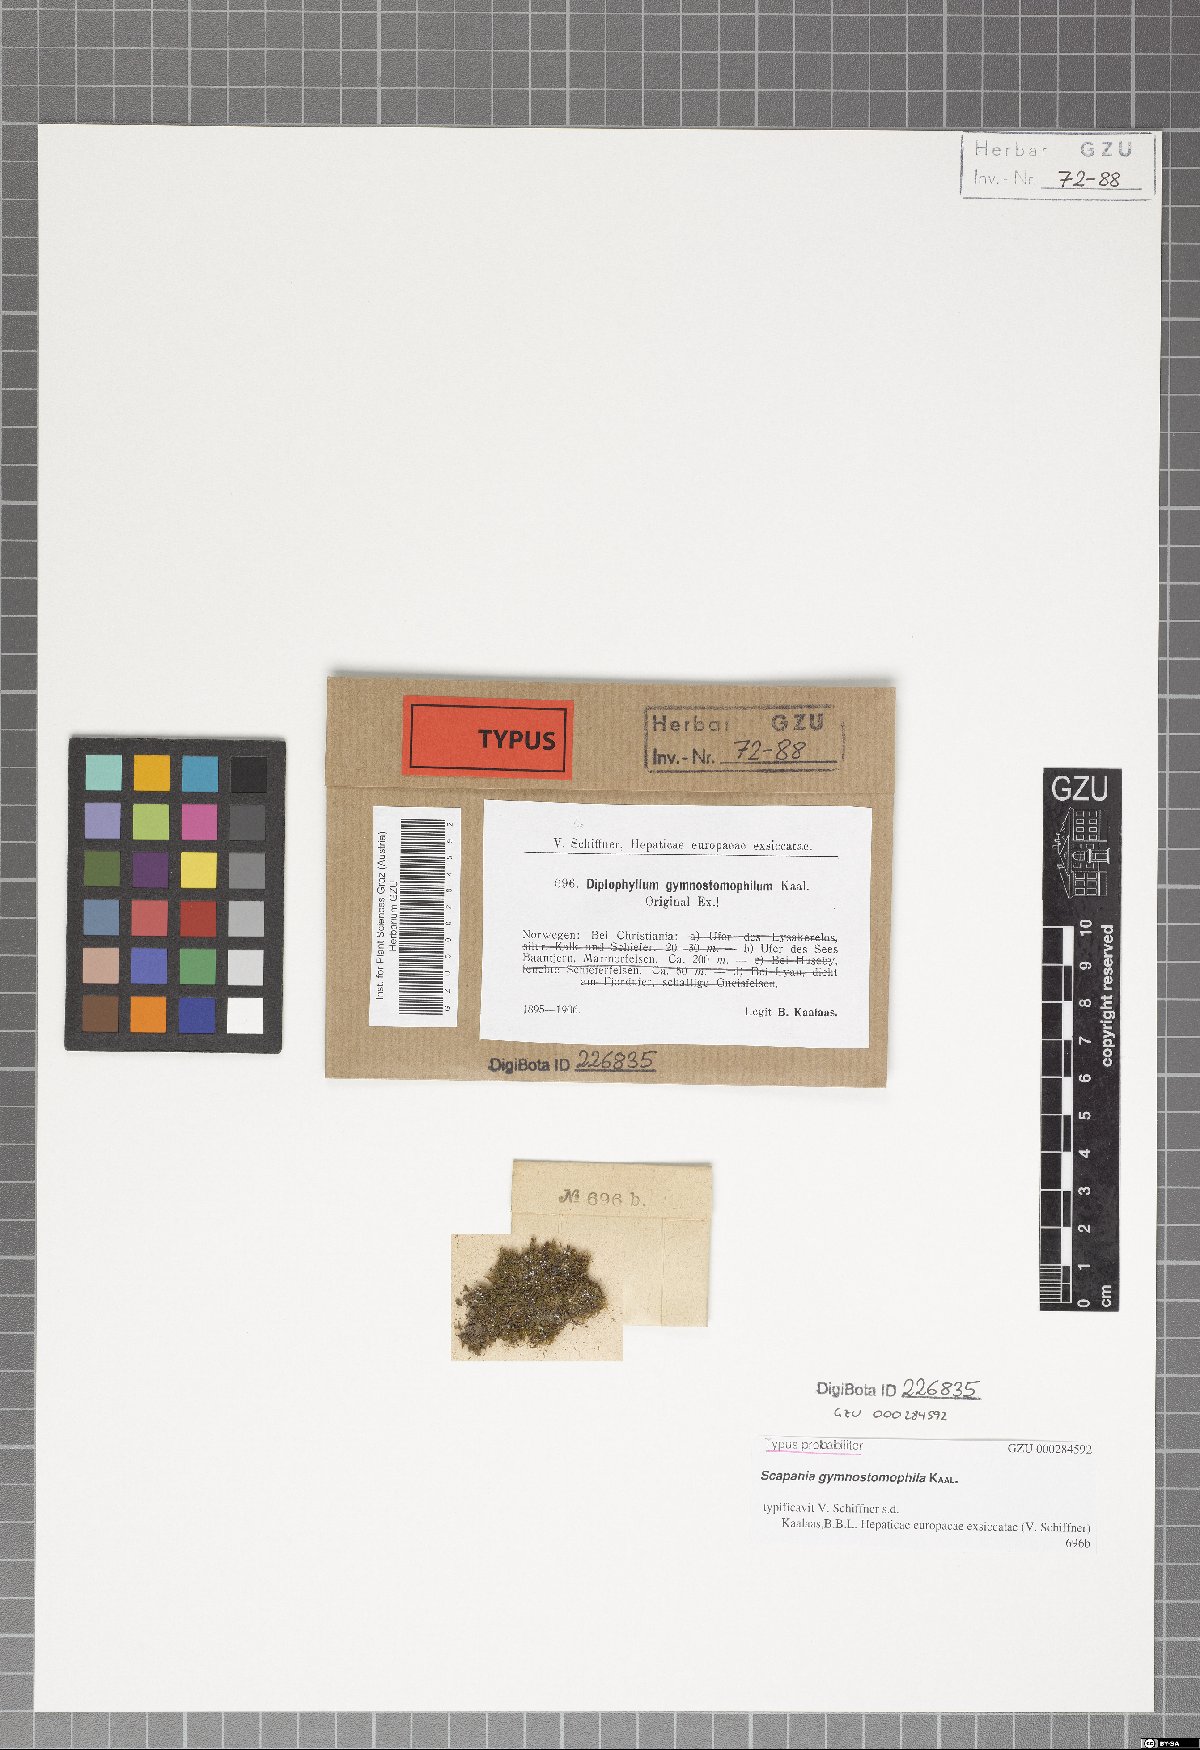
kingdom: Plantae
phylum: Marchantiophyta
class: Jungermanniopsida
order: Jungermanniales
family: Scapaniaceae
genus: Scapania
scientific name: Scapania gymnostomophila
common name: Narrow-lobed earwort
